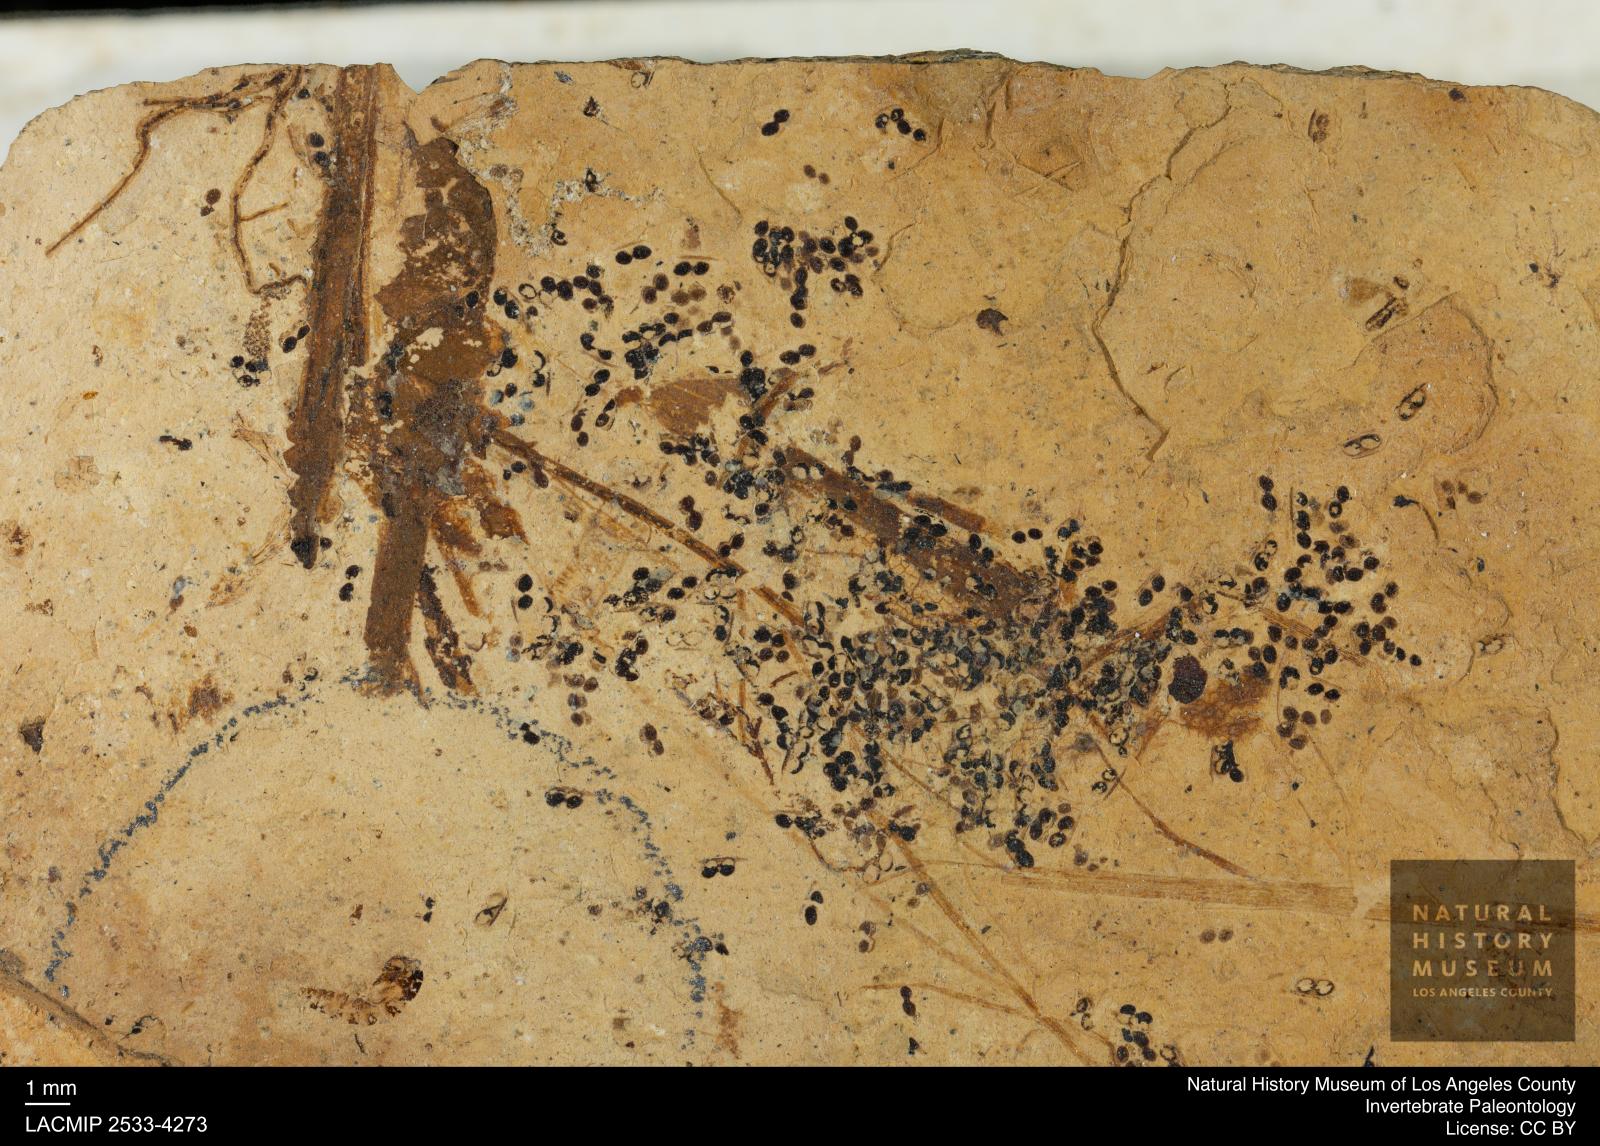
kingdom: Animalia
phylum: Arthropoda
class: Branchiopoda
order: Diplostraca
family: Daphniidae
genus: Daphnia
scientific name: Daphnia
